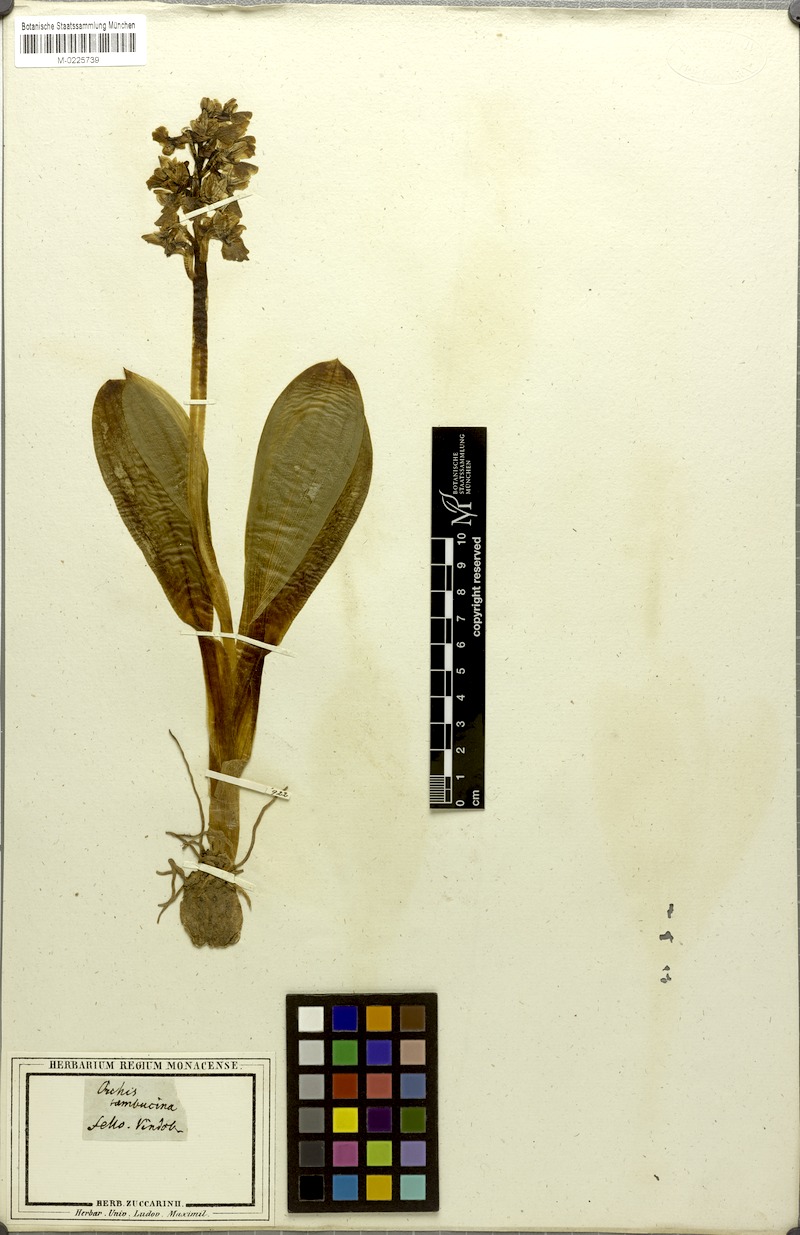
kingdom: Plantae
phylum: Tracheophyta
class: Liliopsida
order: Asparagales
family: Orchidaceae
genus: Orchis
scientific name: Orchis pallens
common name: Pale-flowered orchid
